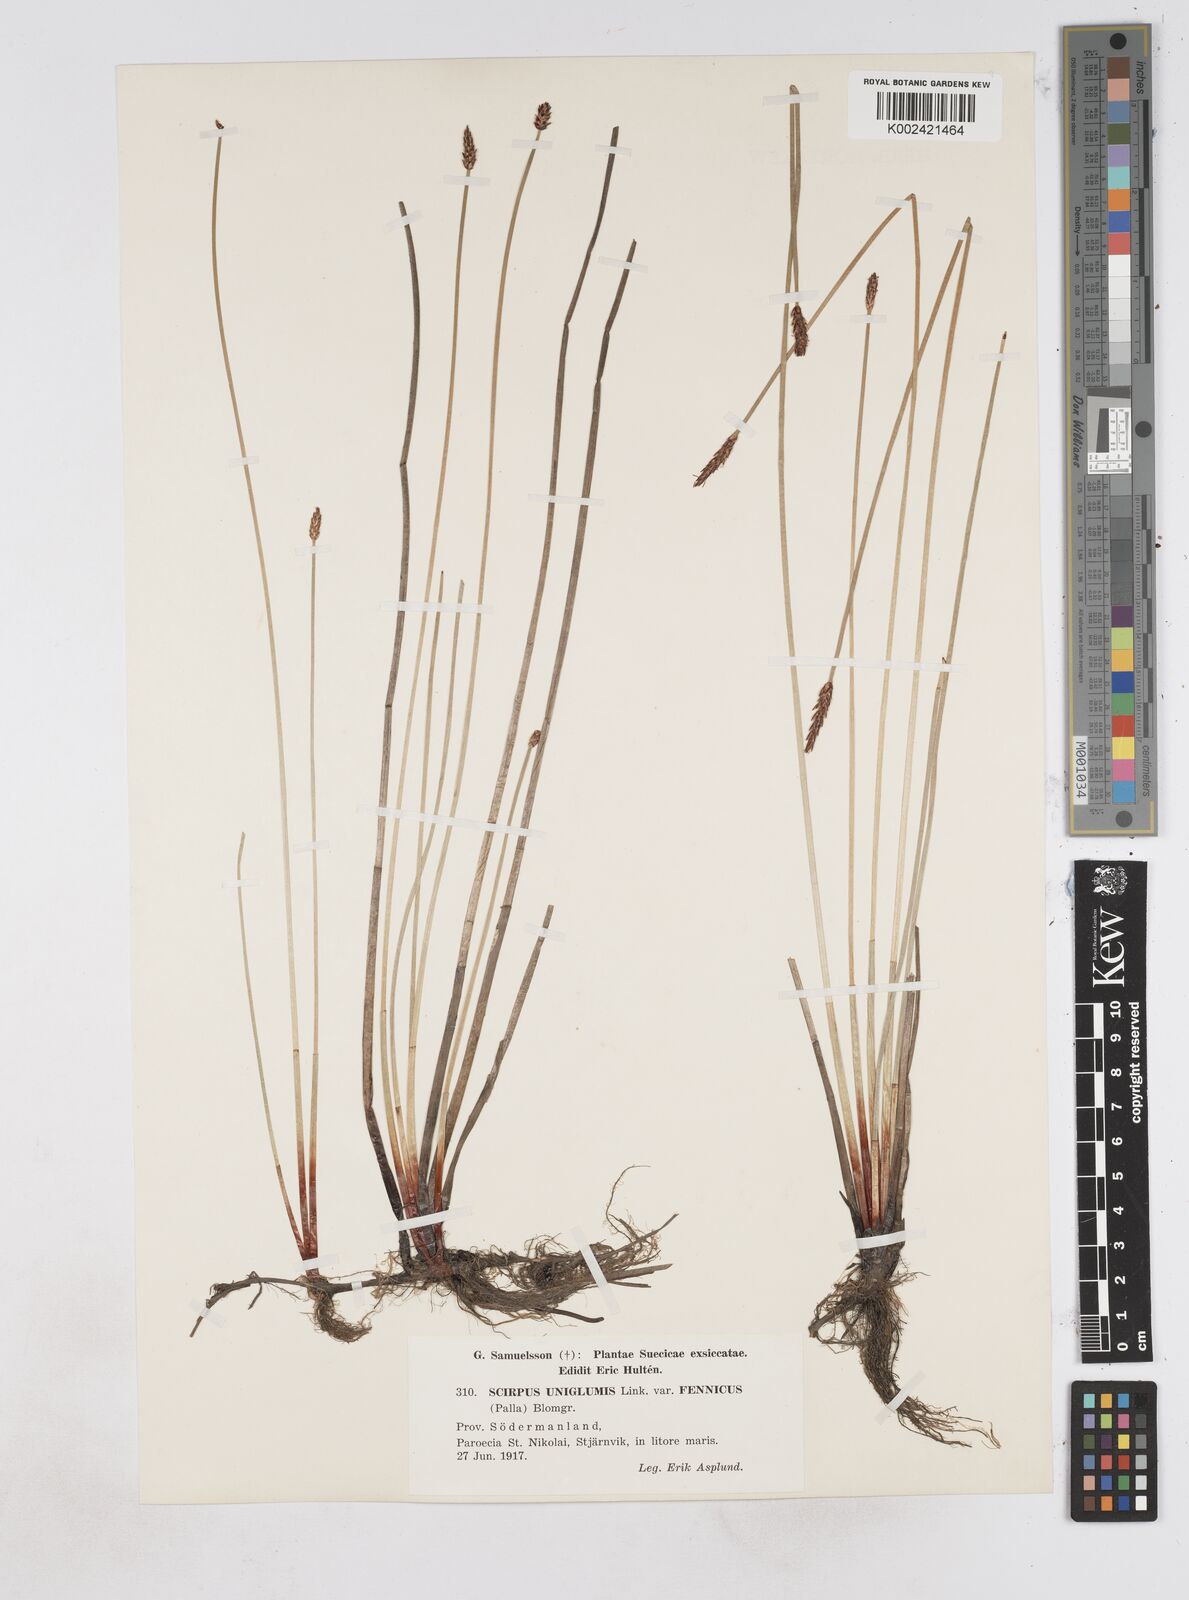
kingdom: Plantae
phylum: Tracheophyta
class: Liliopsida
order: Poales
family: Cyperaceae
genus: Eleocharis
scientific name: Eleocharis uniglumis
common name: Slender spike-rush
